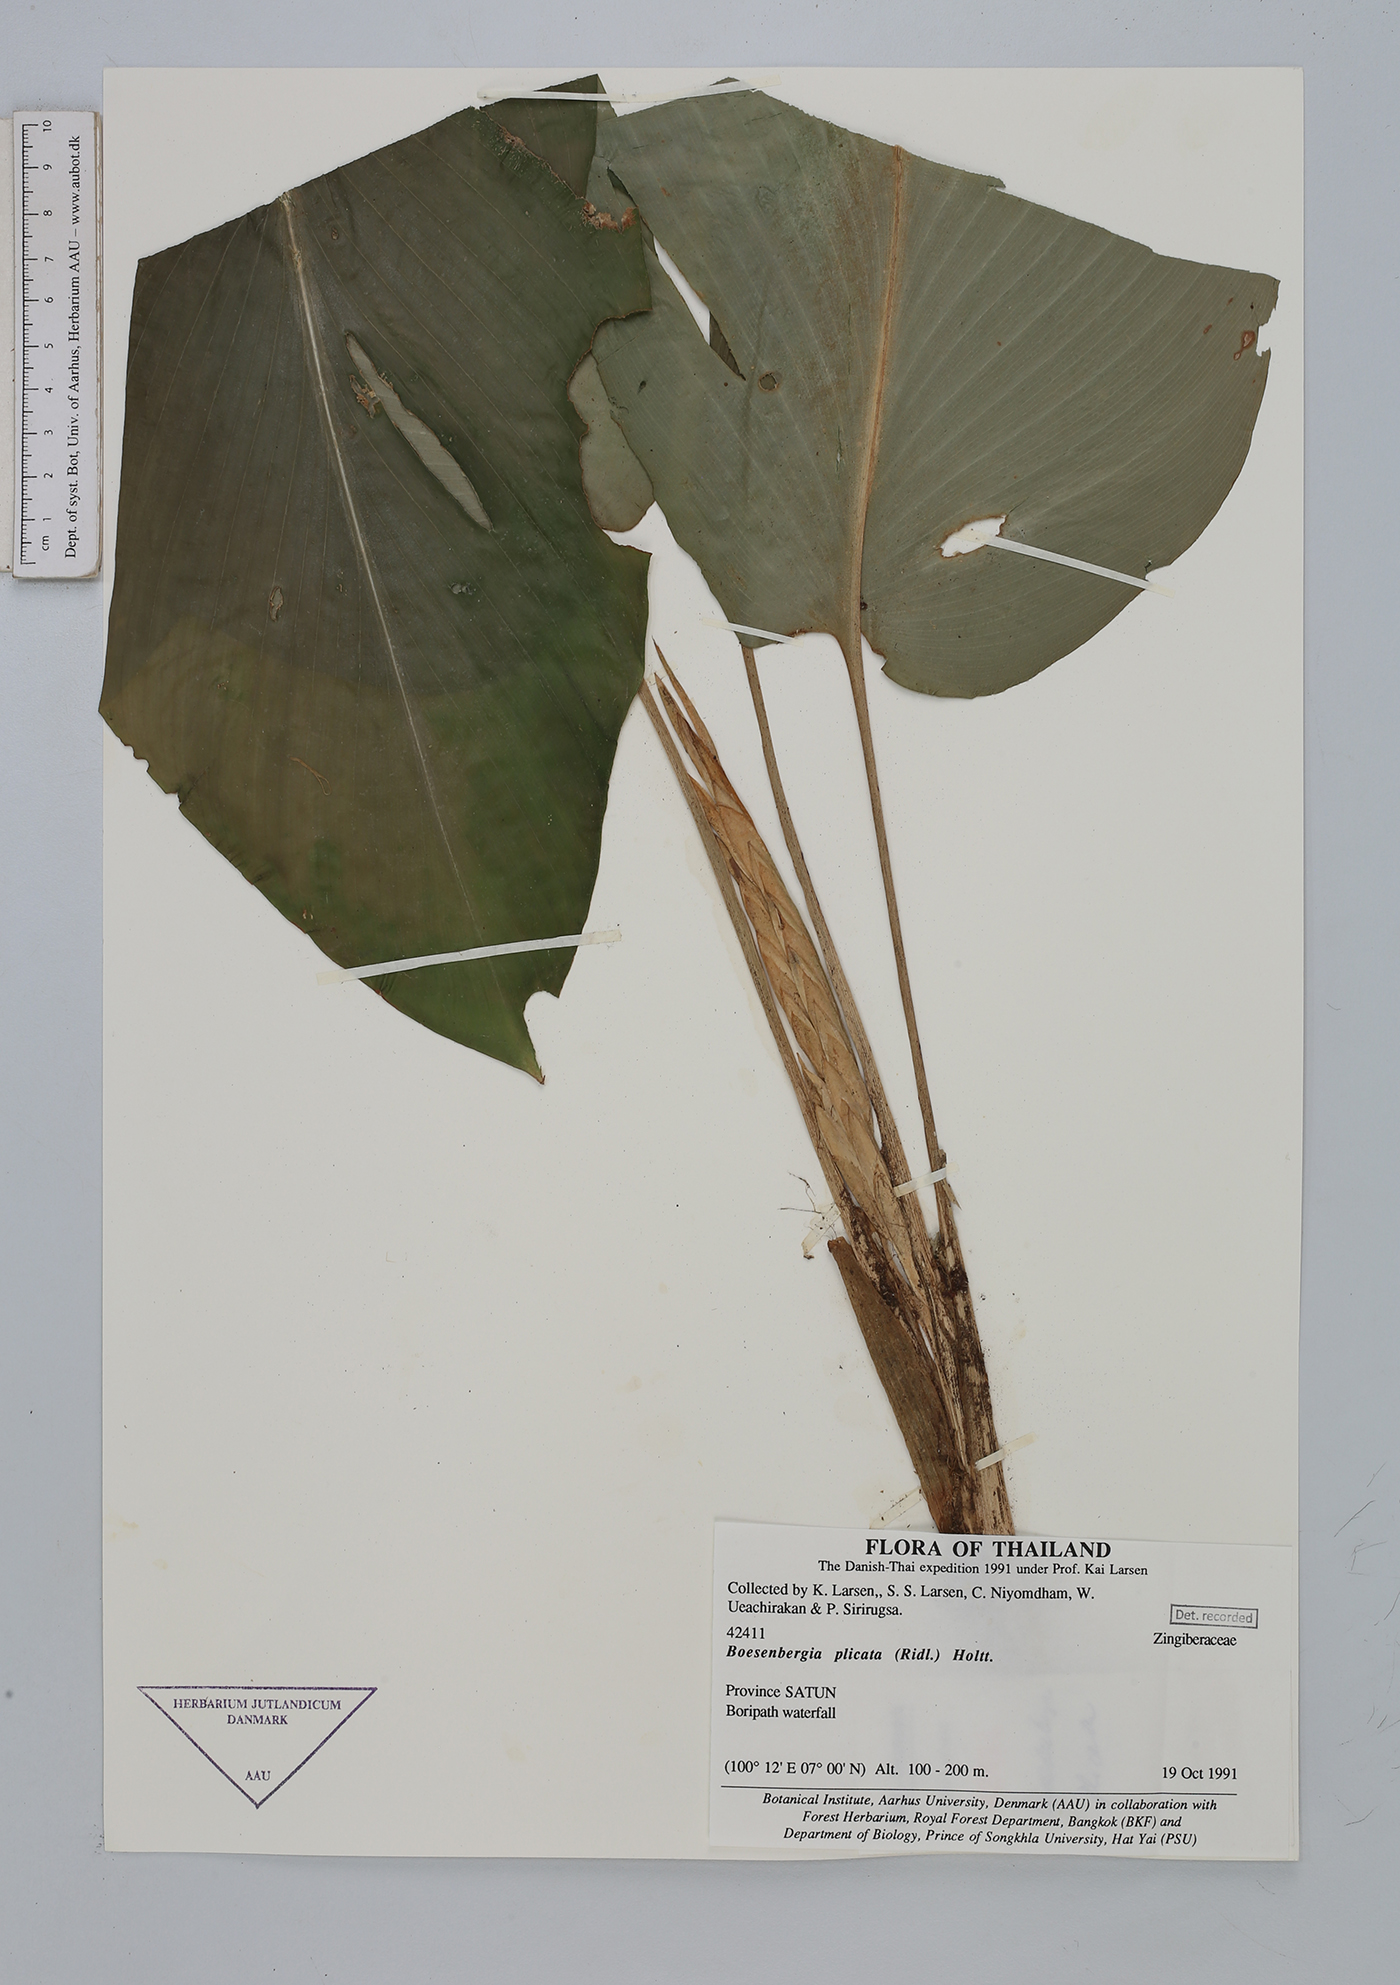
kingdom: Plantae
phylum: Tracheophyta
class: Liliopsida
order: Zingiberales
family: Zingiberaceae
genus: Boesenbergia
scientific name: Boesenbergia plicata
